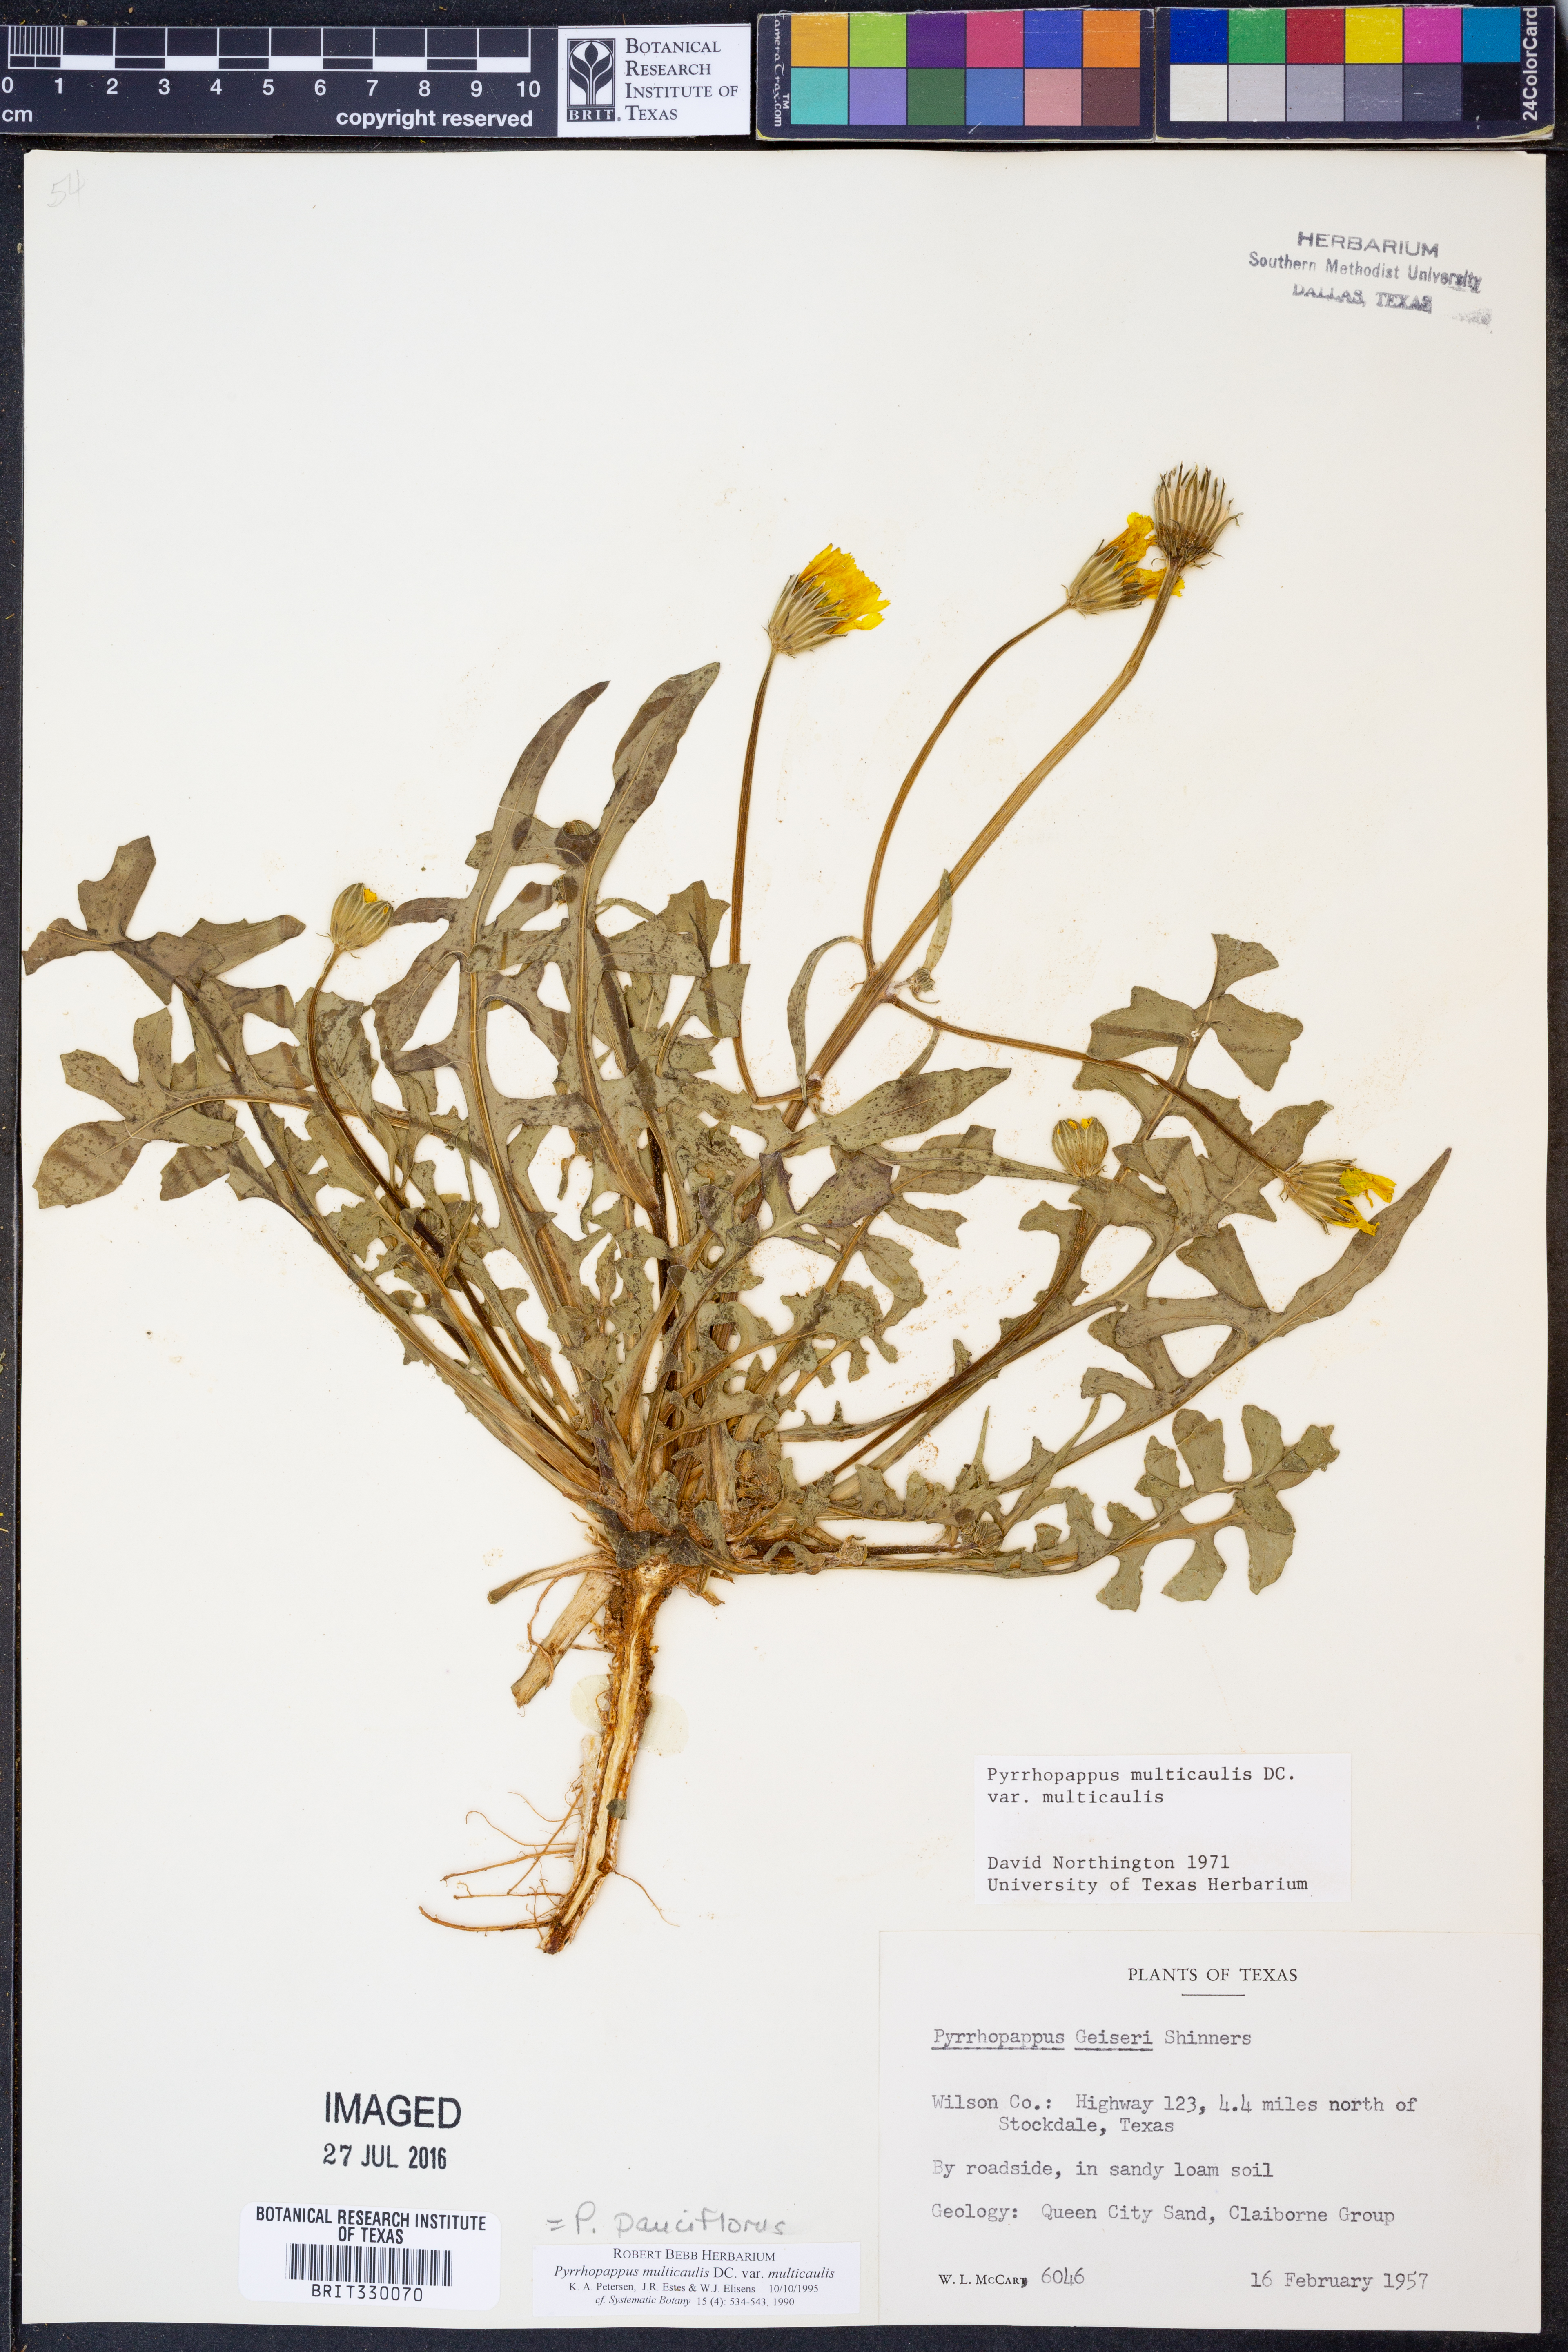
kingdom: Plantae
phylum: Tracheophyta
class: Magnoliopsida
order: Asterales
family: Asteraceae
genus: Pyrrhopappus
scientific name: Pyrrhopappus pauciflorus
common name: Texas false dandelion
